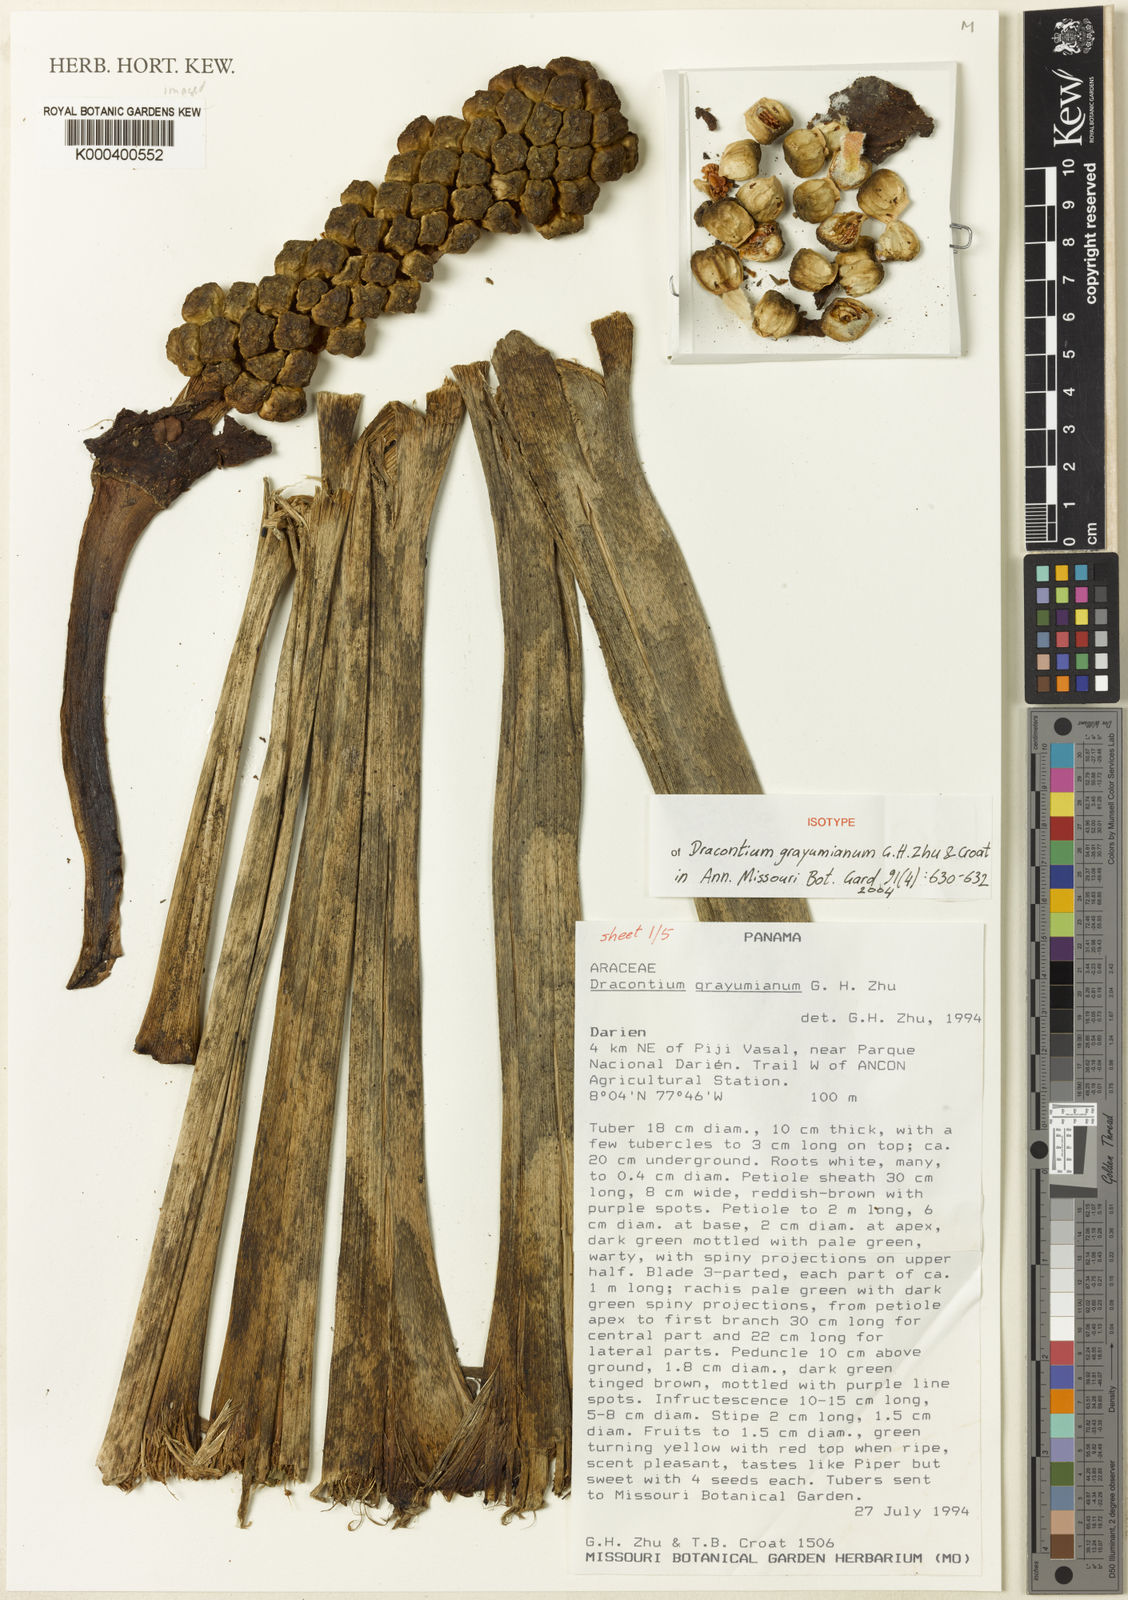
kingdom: Plantae
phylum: Tracheophyta
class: Liliopsida
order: Alismatales
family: Araceae
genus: Dracontium
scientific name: Dracontium grayumianum
